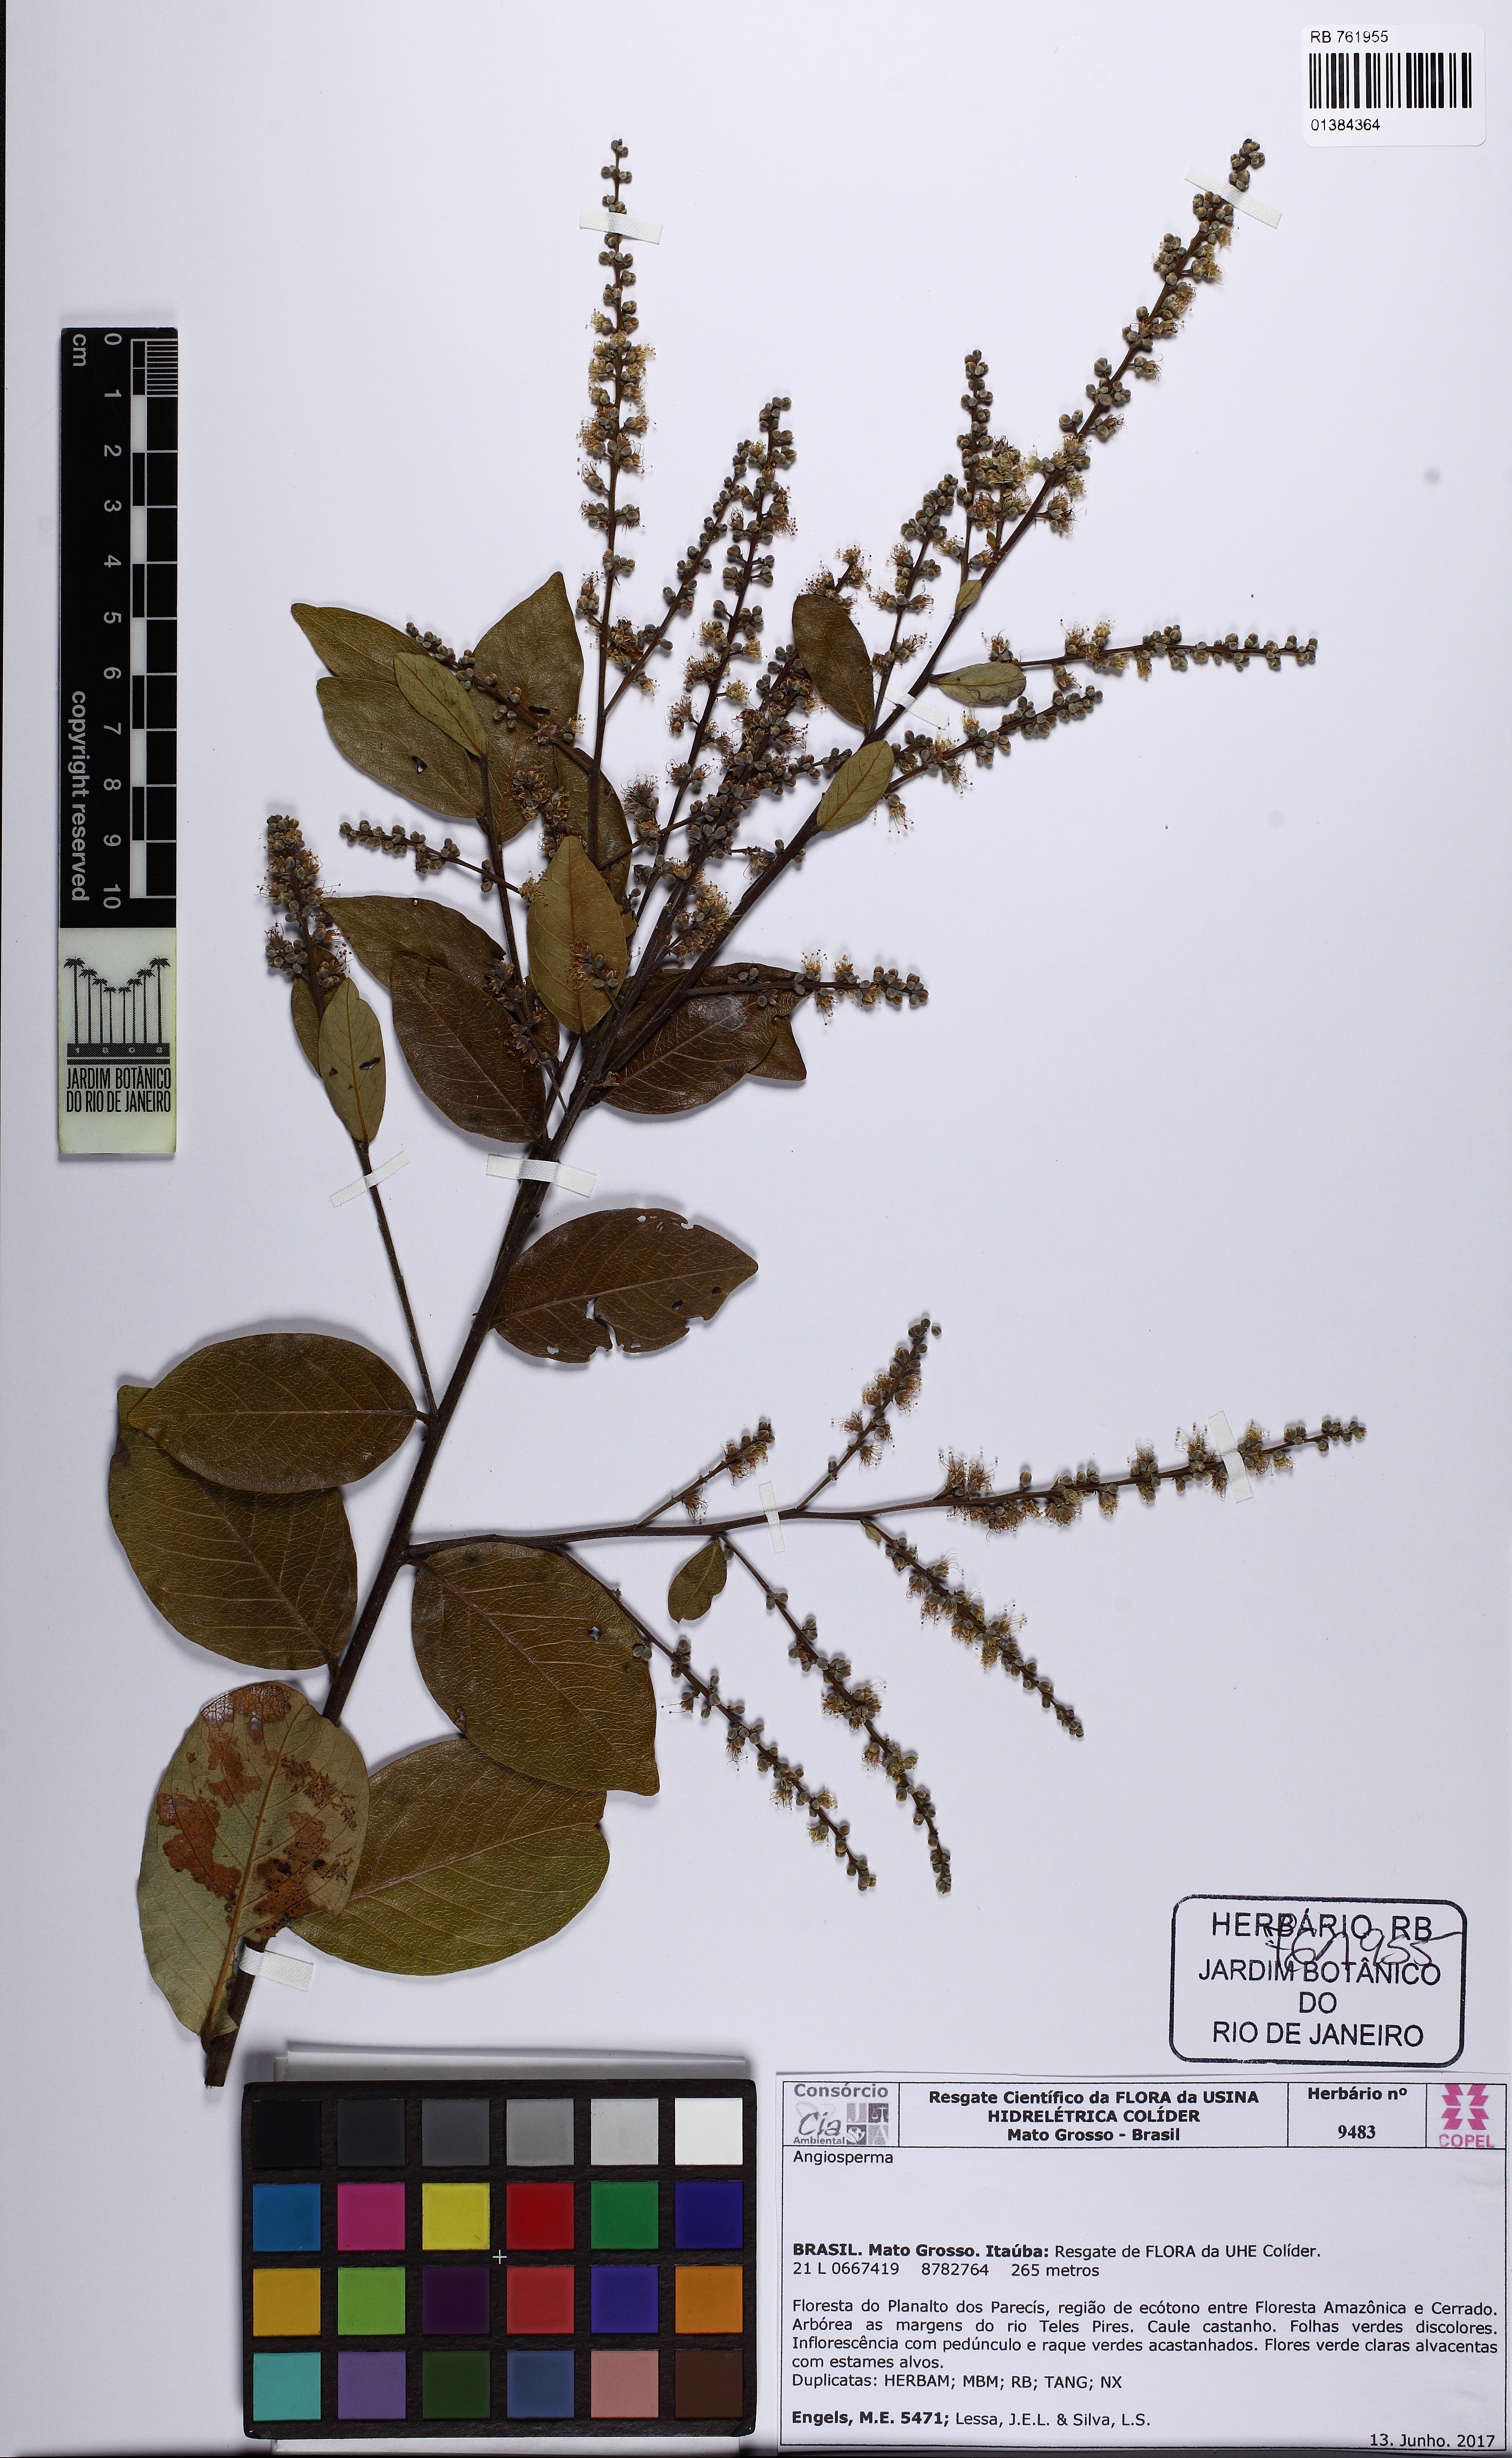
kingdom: Plantae
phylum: Tracheophyta
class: Magnoliopsida
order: Malpighiales
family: Chrysobalanaceae
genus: Licania
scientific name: Licania
